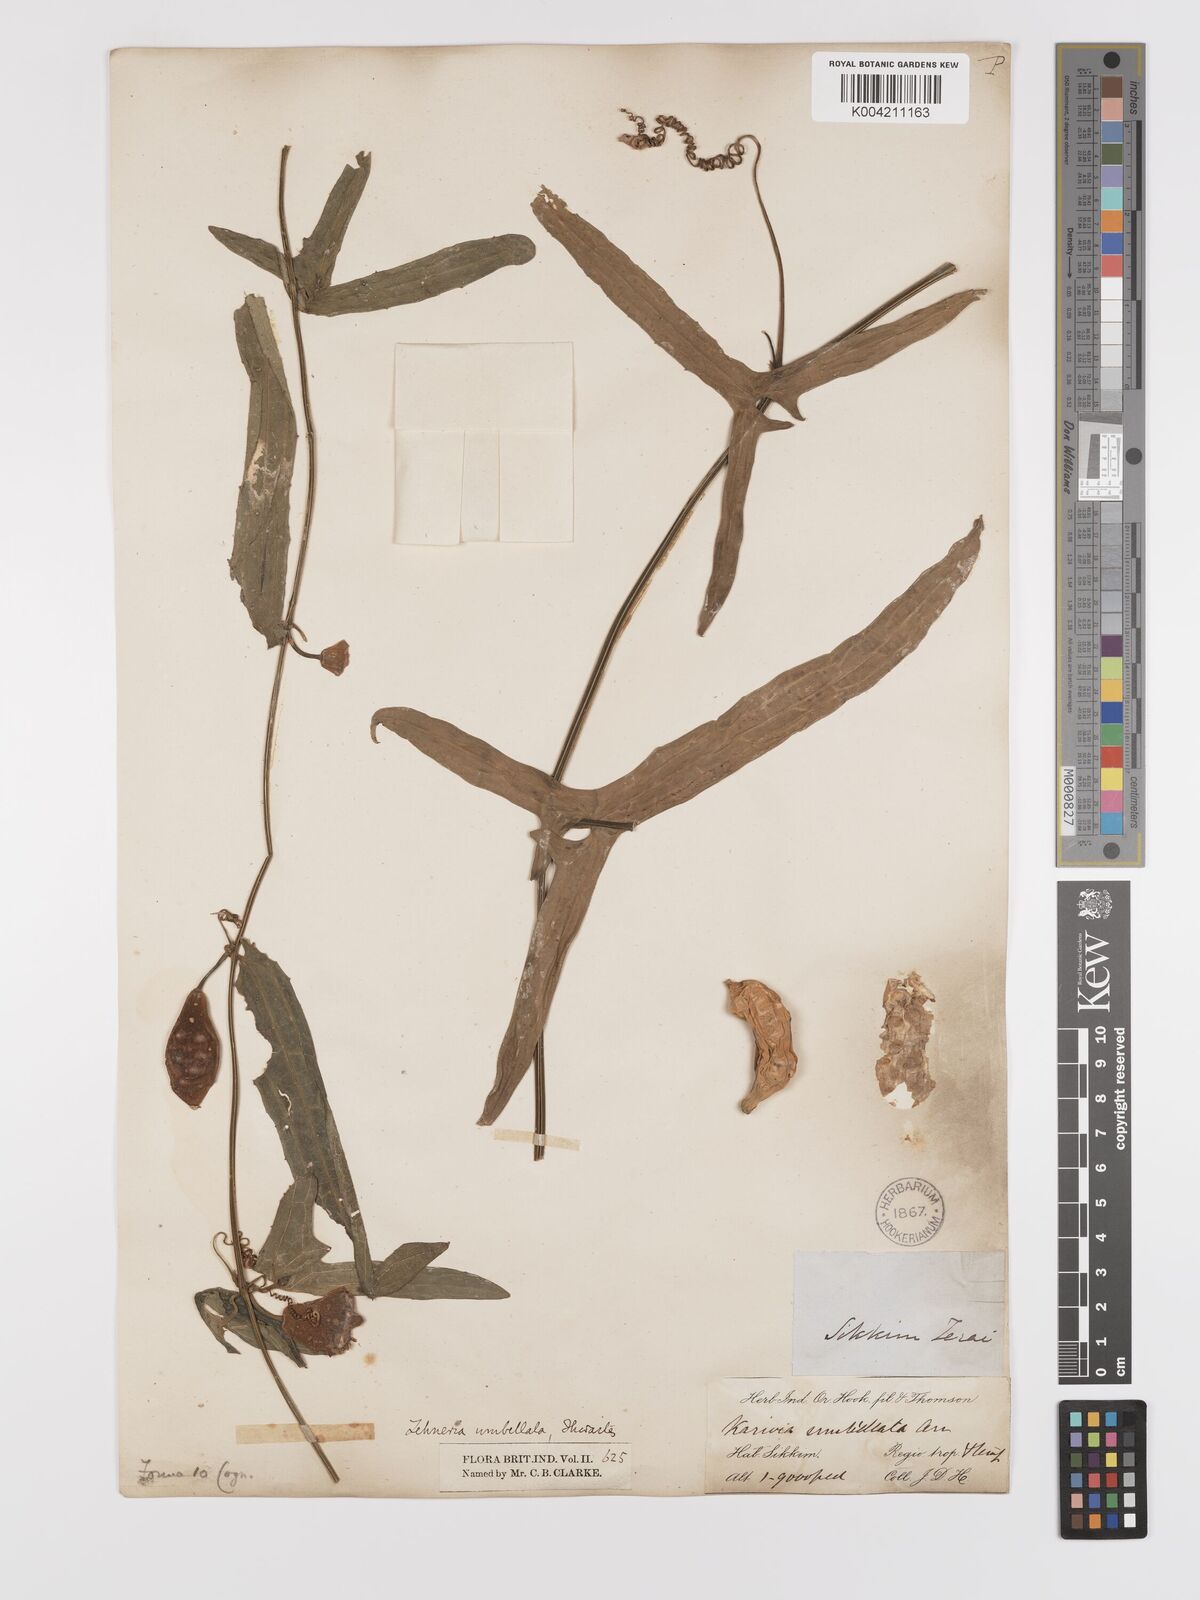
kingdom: Plantae
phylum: Tracheophyta
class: Magnoliopsida
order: Cucurbitales
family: Cucurbitaceae
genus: Solena
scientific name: Solena amplexicaulis
